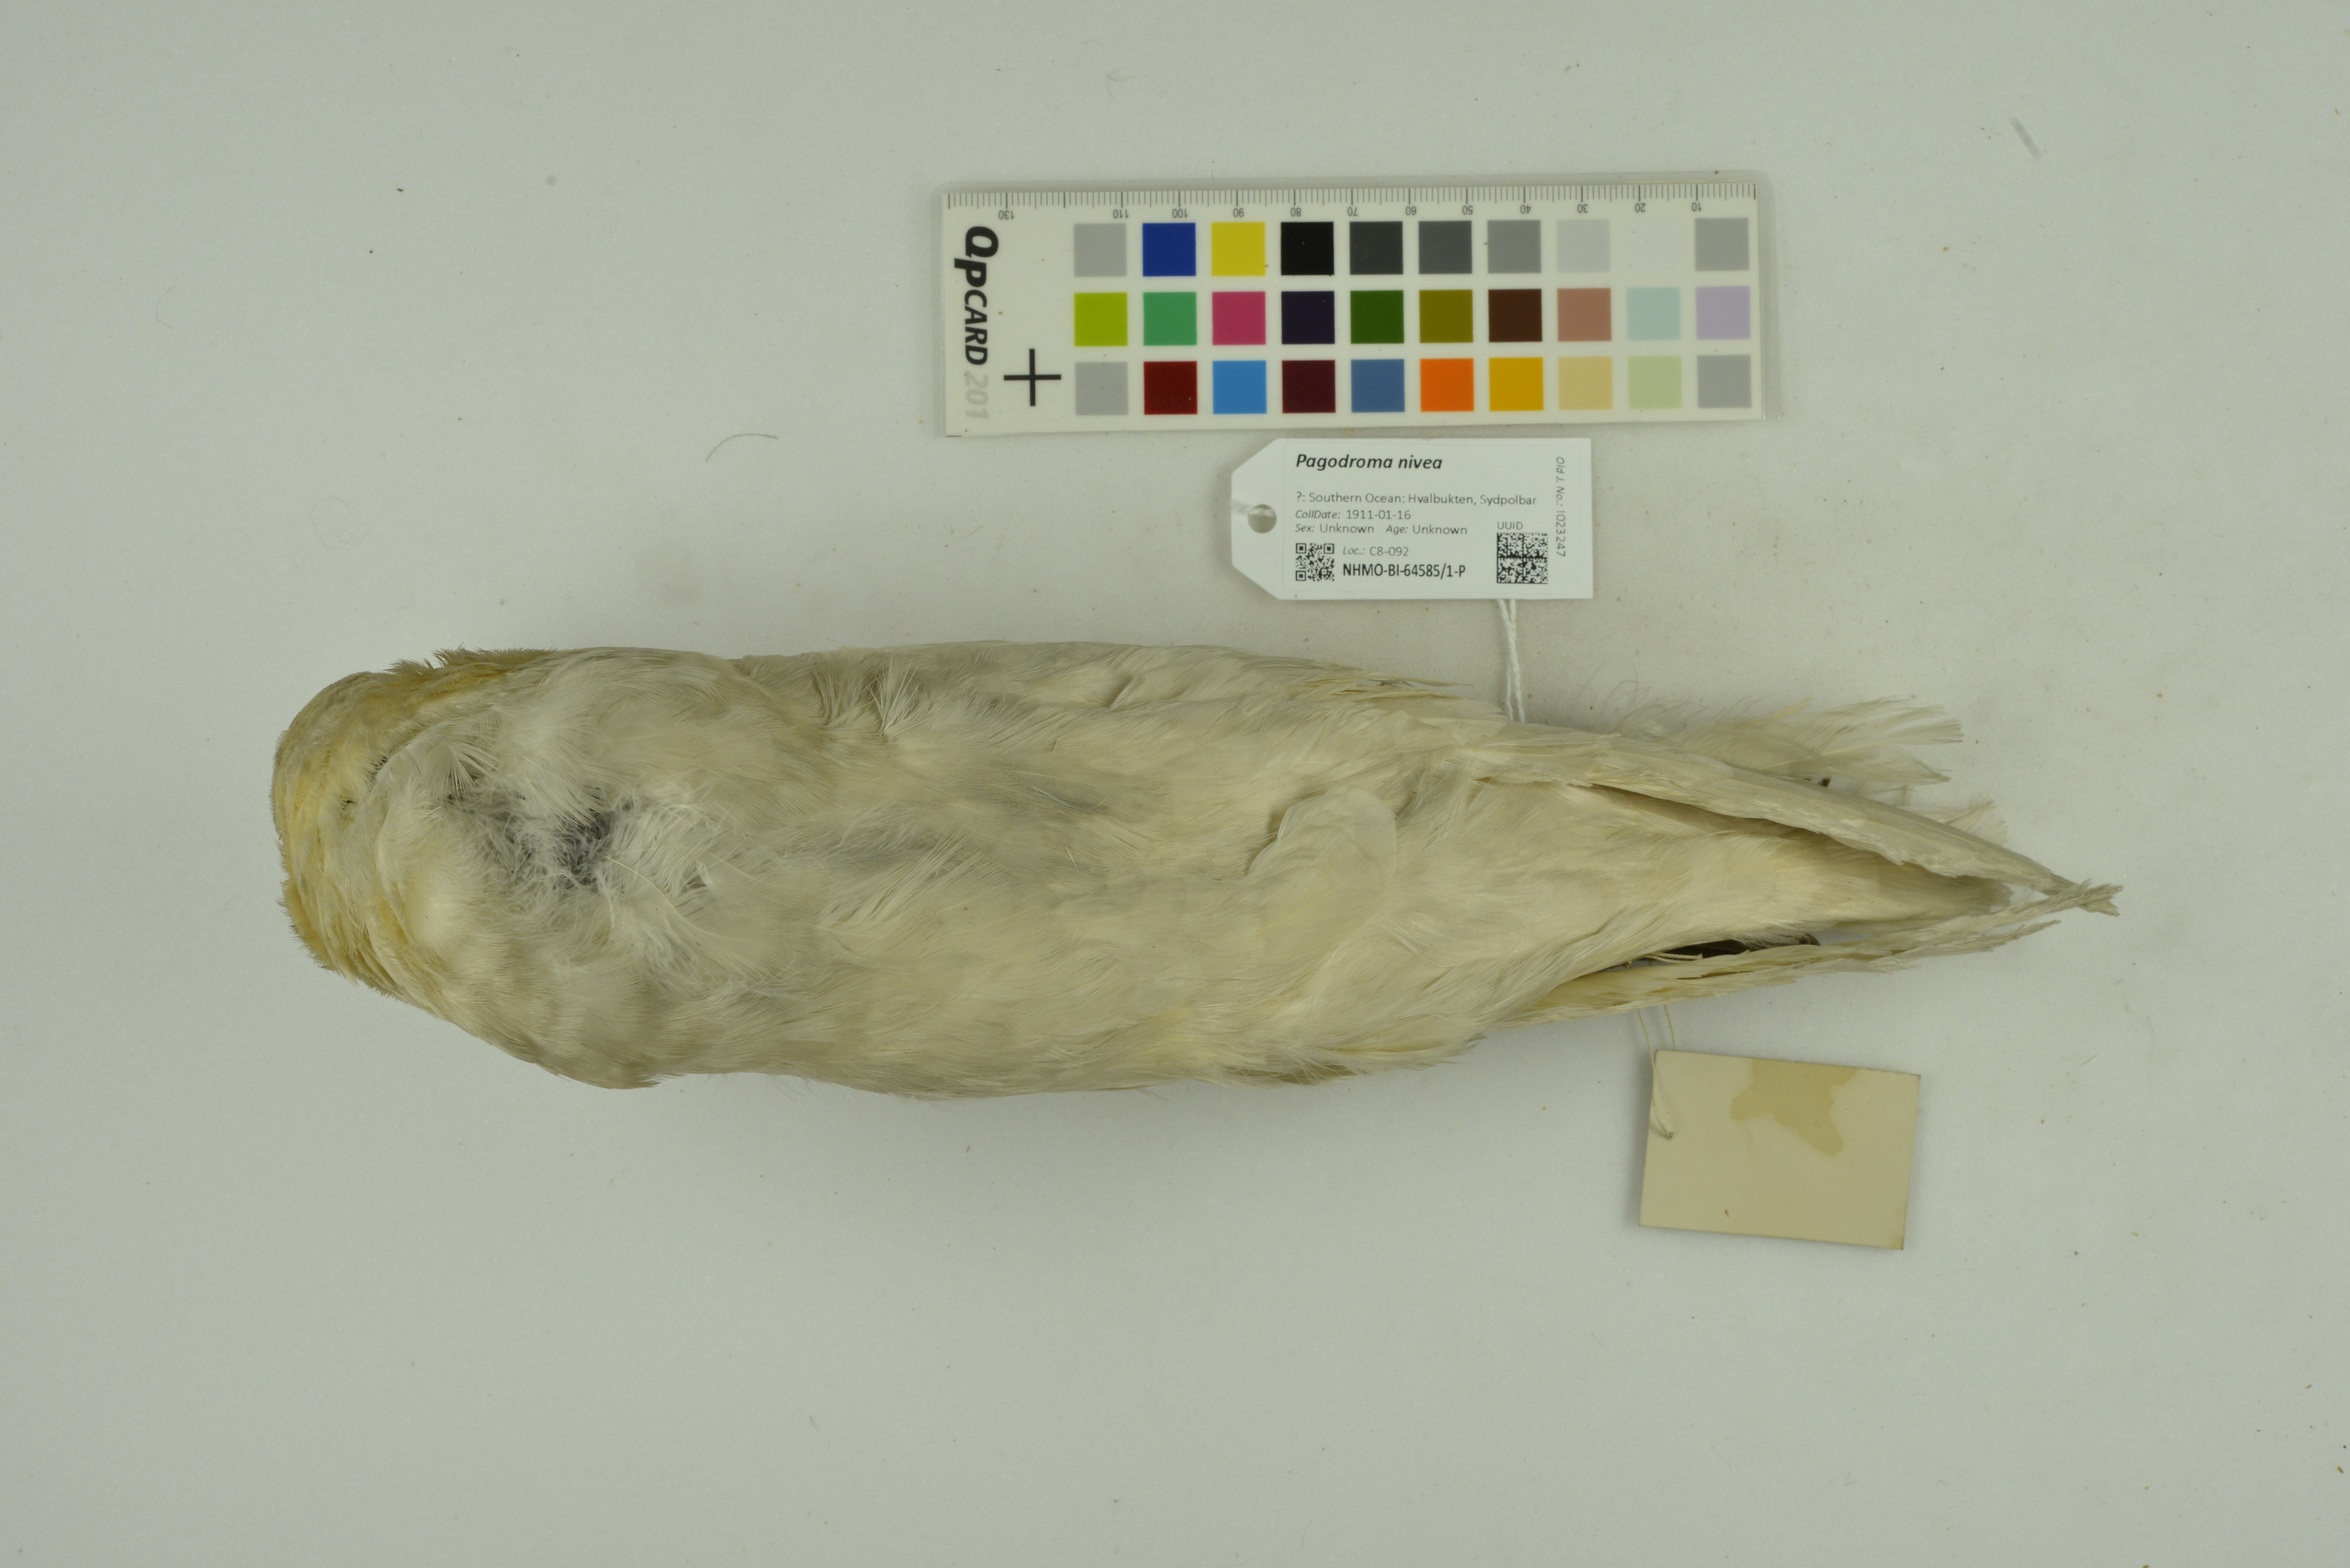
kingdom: Animalia
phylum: Chordata
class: Aves
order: Procellariiformes
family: Procellariidae
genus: Pagodroma
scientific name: Pagodroma nivea
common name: Snow petrel
